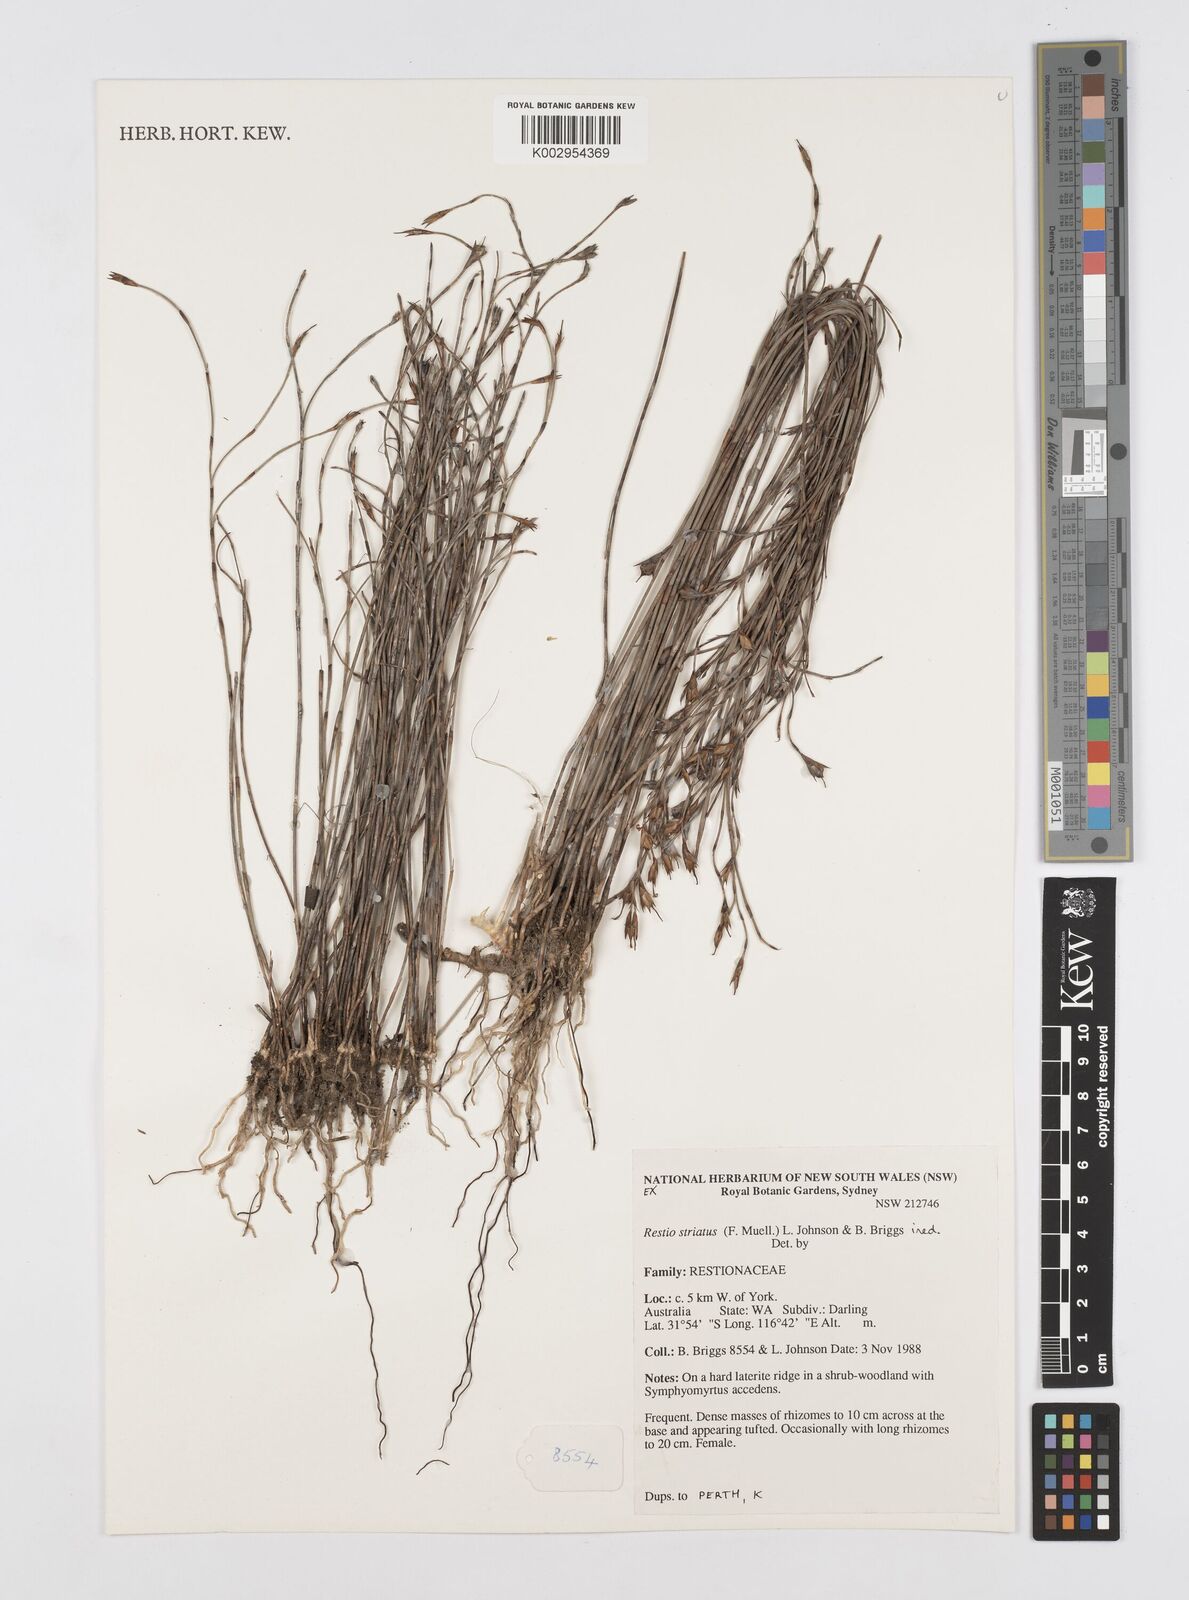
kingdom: Plantae
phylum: Tracheophyta
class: Liliopsida
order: Poales
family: Restionaceae
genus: Loxocarya
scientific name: Loxocarya striata
